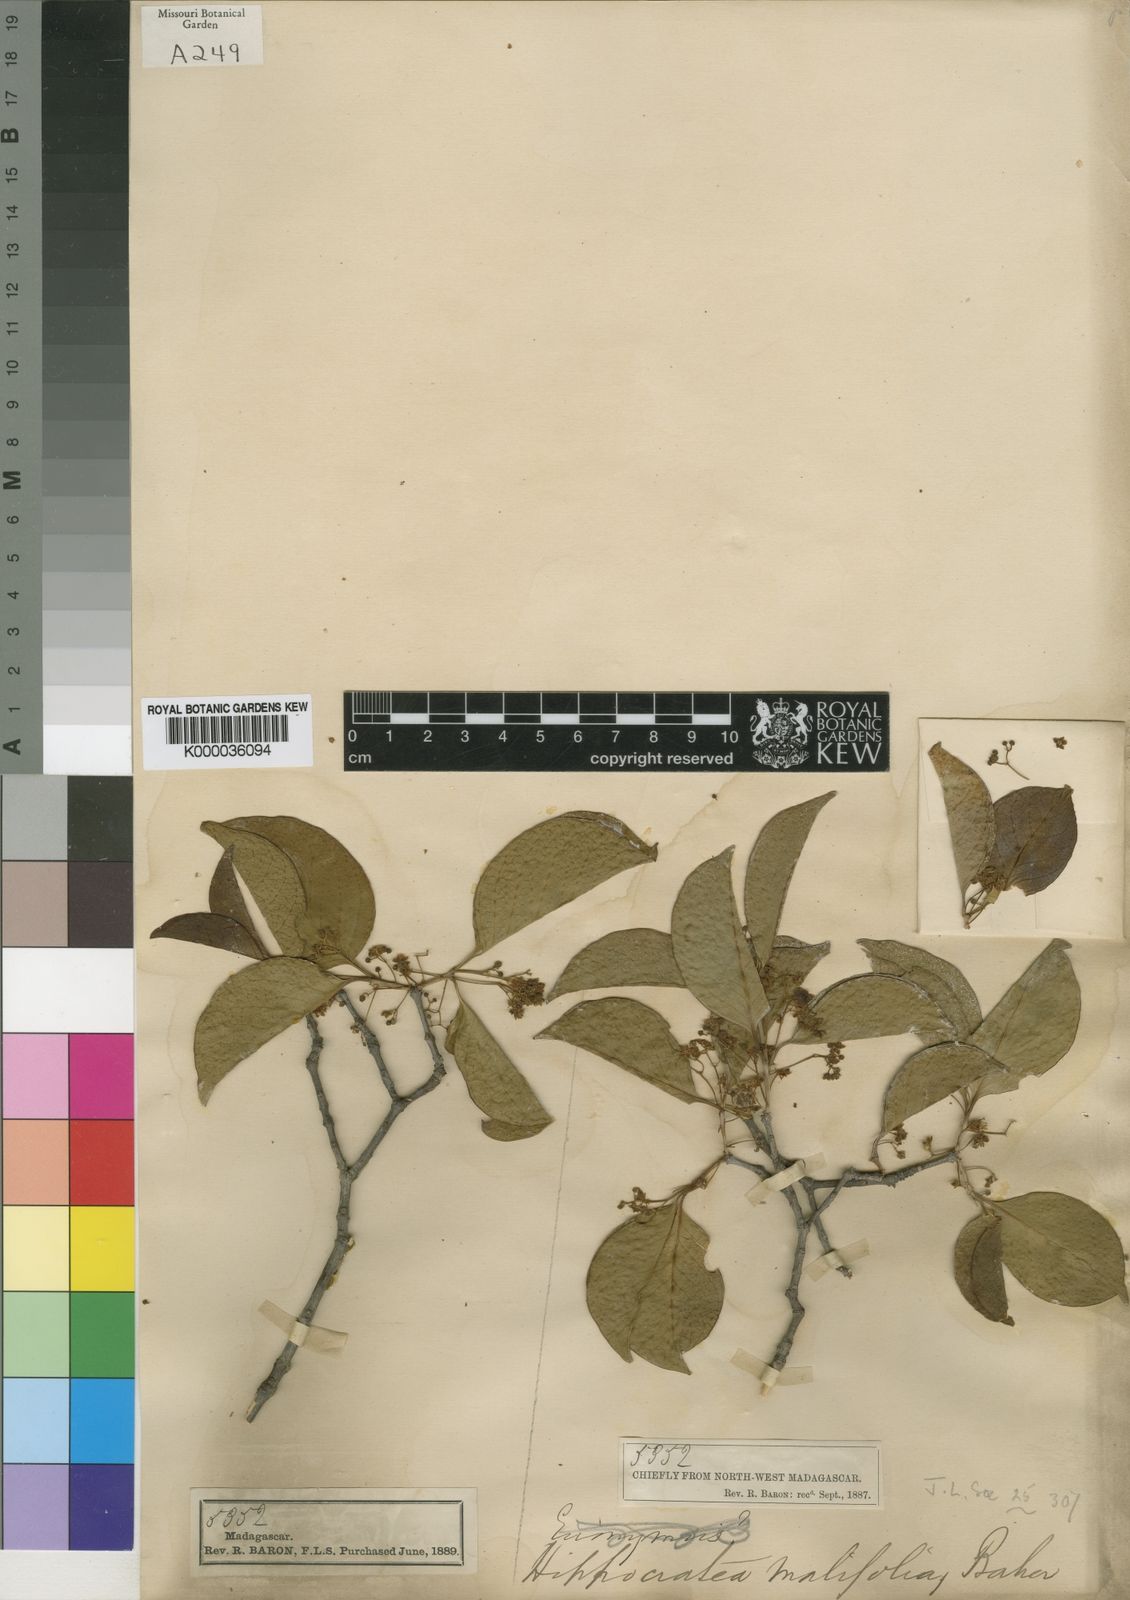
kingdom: Plantae
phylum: Tracheophyta
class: Magnoliopsida
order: Celastrales
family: Celastraceae
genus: Pristimera
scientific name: Pristimera malifolia
